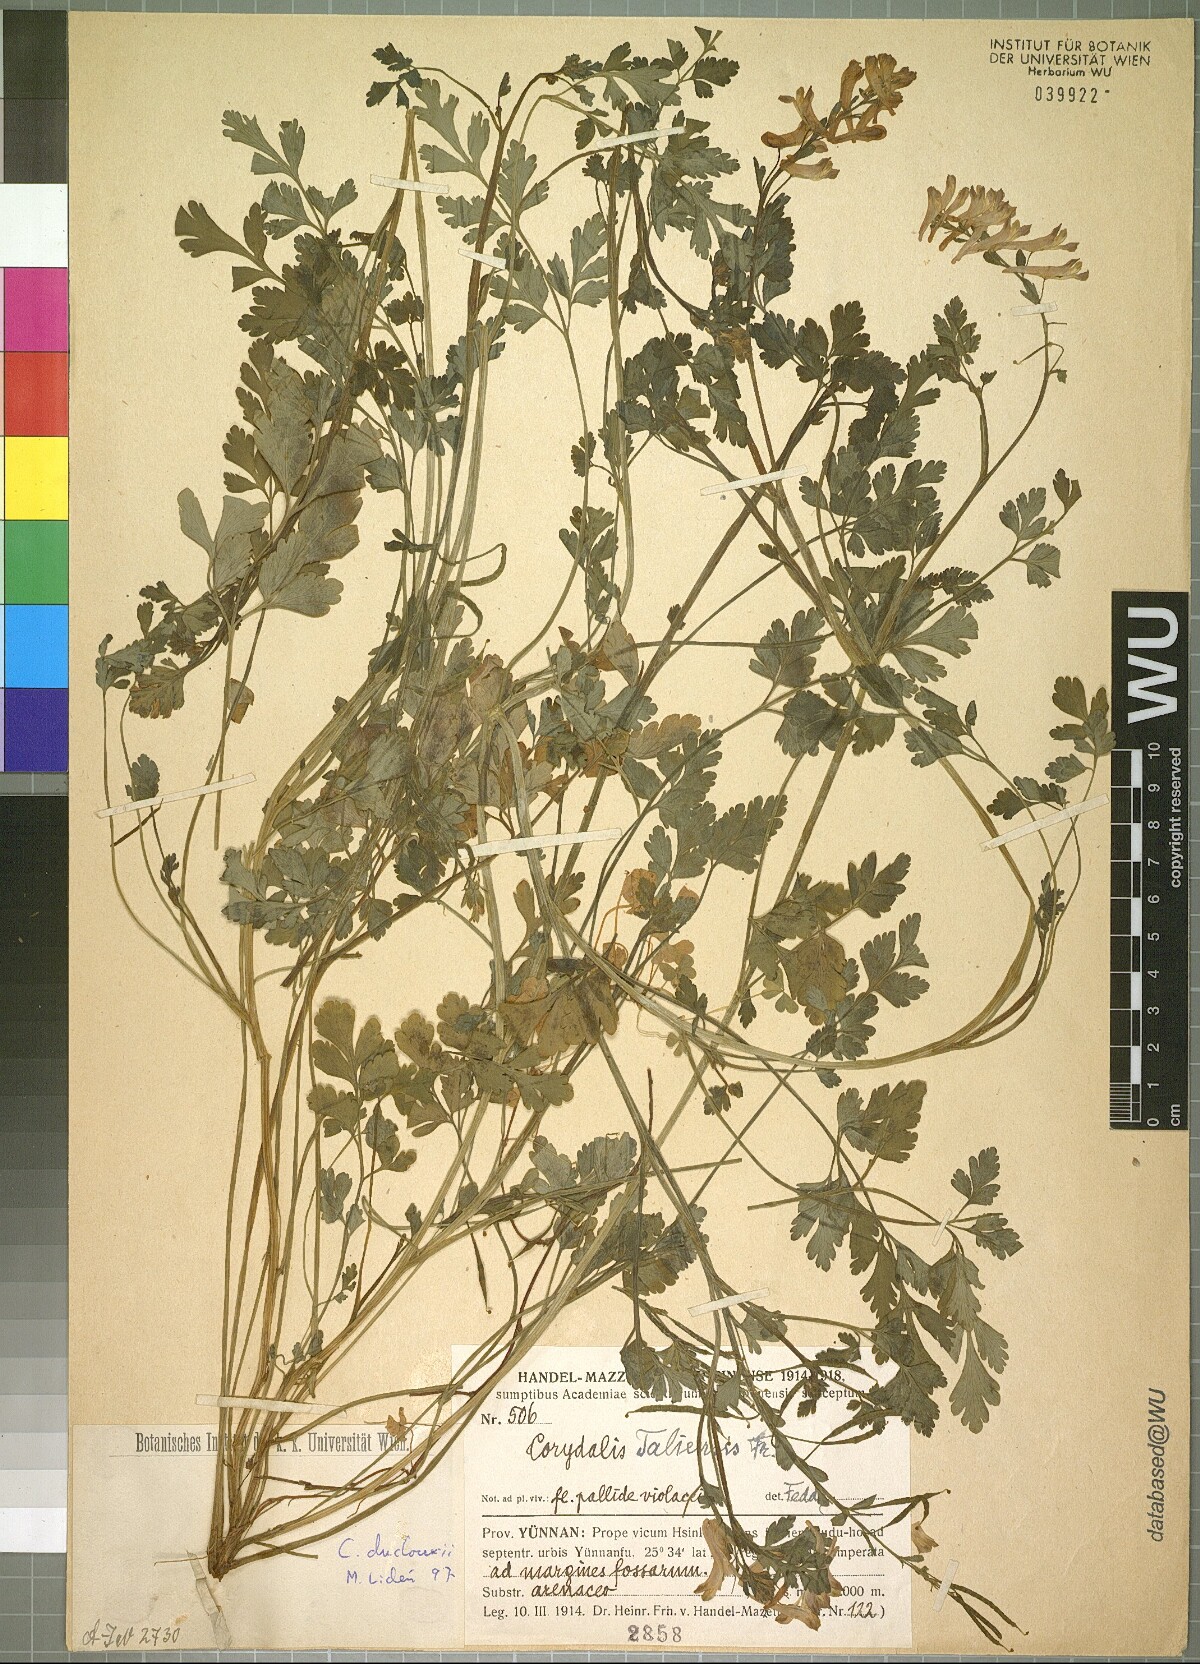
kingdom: Plantae
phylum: Tracheophyta
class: Magnoliopsida
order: Ranunculales
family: Papaveraceae
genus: Corydalis
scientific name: Corydalis duclouxii
